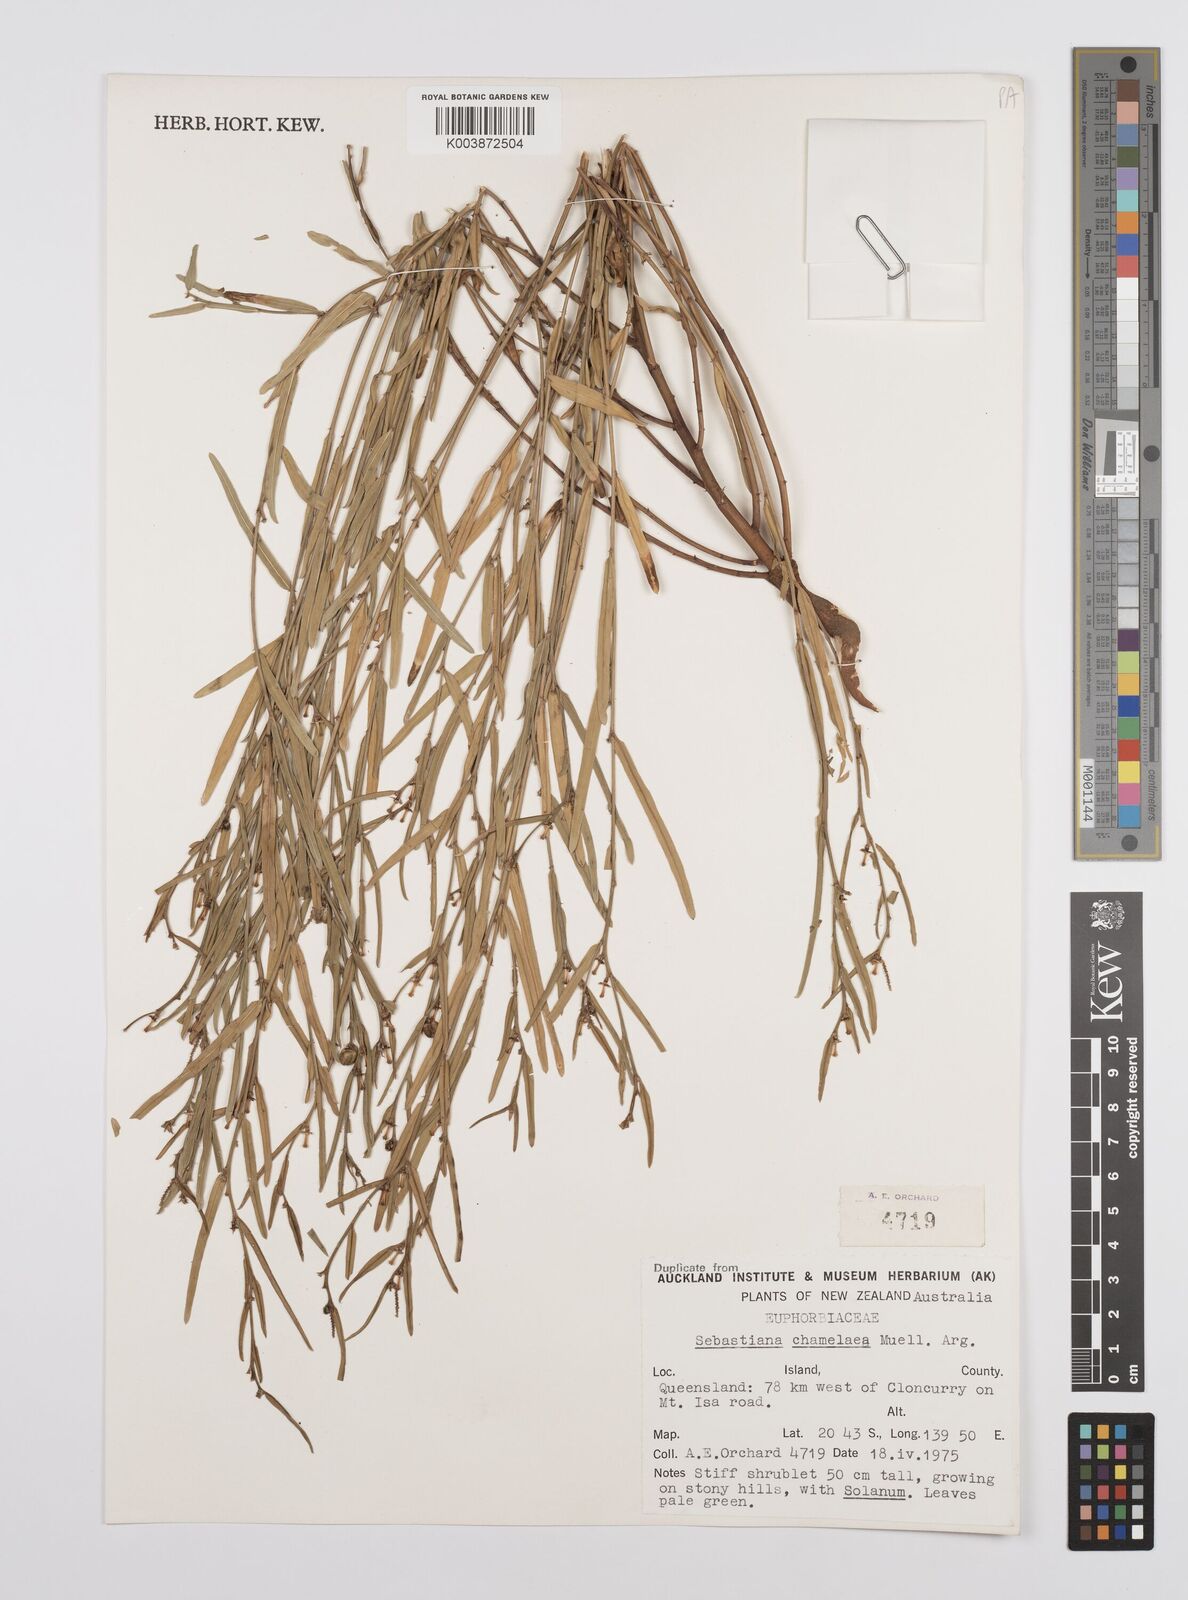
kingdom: Plantae
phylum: Tracheophyta
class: Magnoliopsida
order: Malpighiales
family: Euphorbiaceae
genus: Microstachys
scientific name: Microstachys chamaelea
